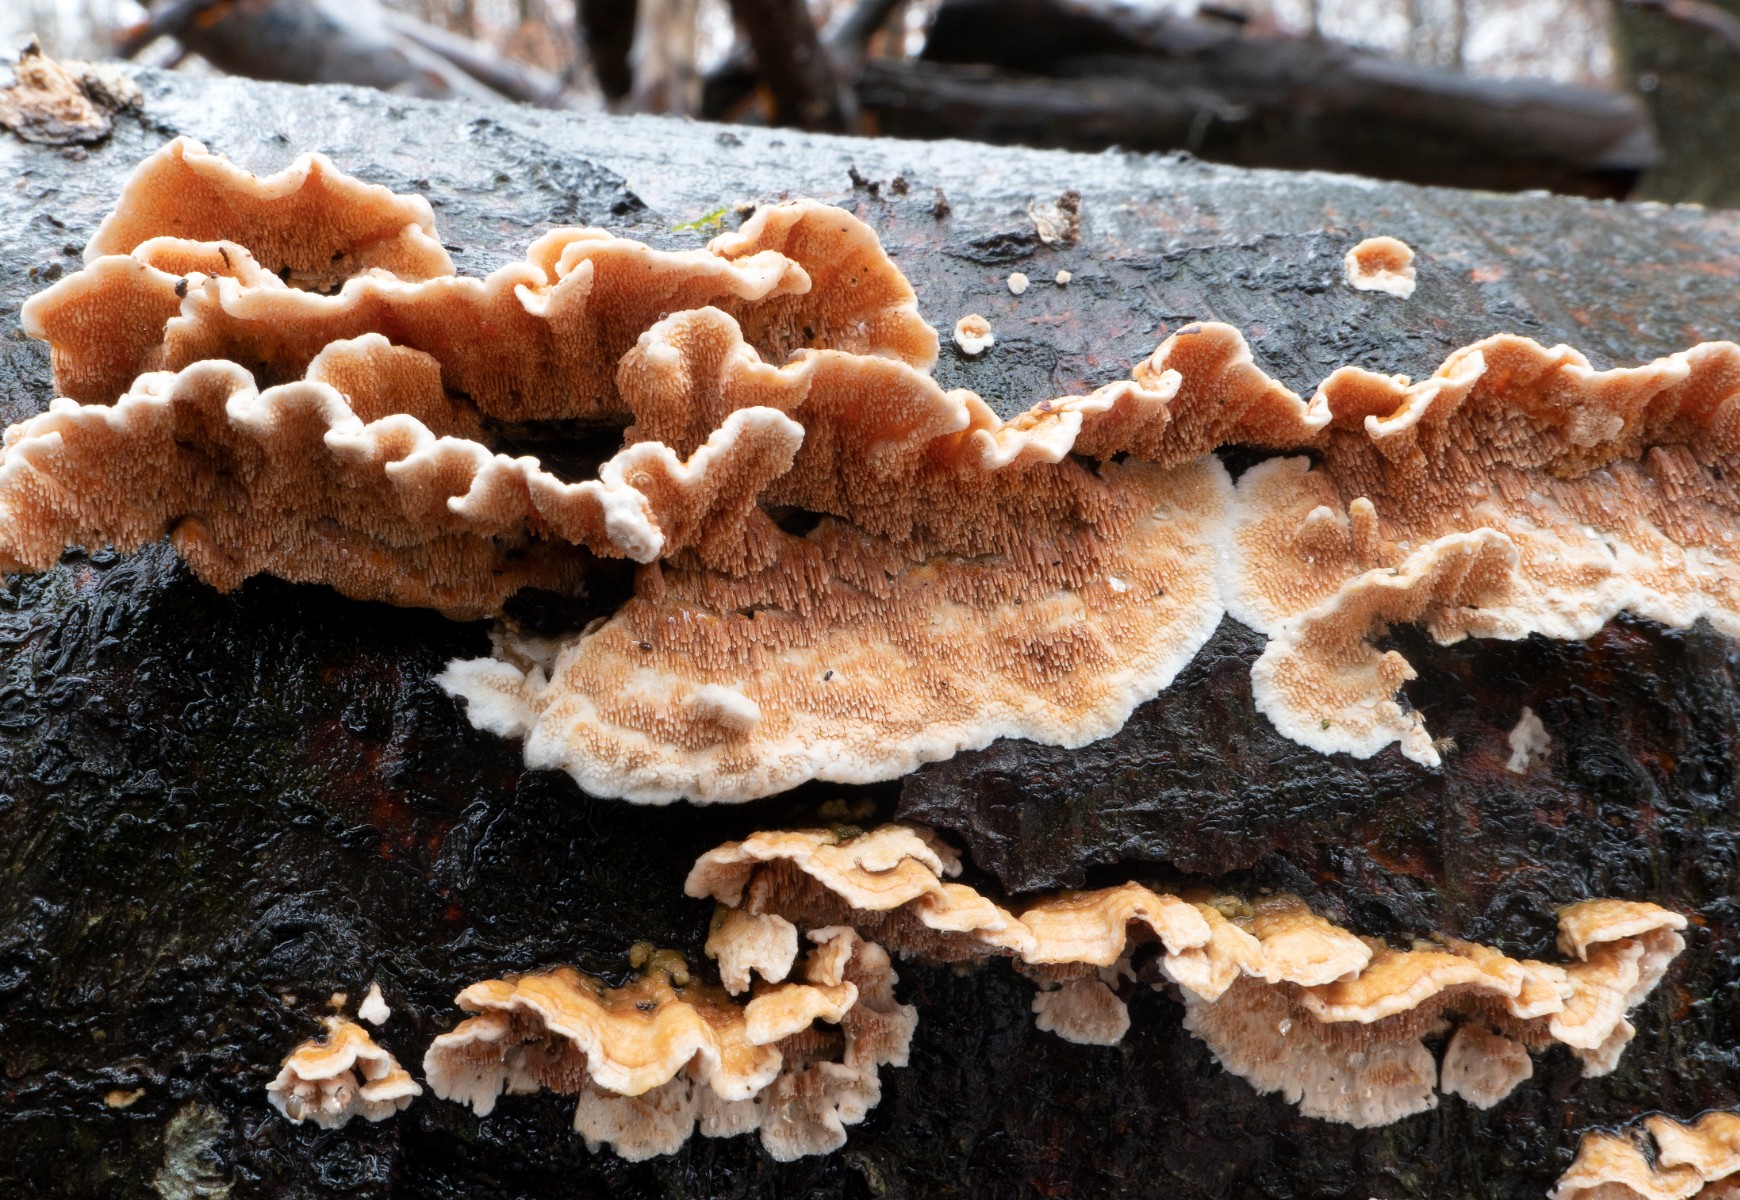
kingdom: Fungi
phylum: Basidiomycota
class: Agaricomycetes
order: Polyporales
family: Steccherinaceae
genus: Steccherinum
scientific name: Steccherinum ochraceum
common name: almindelig skønpig
